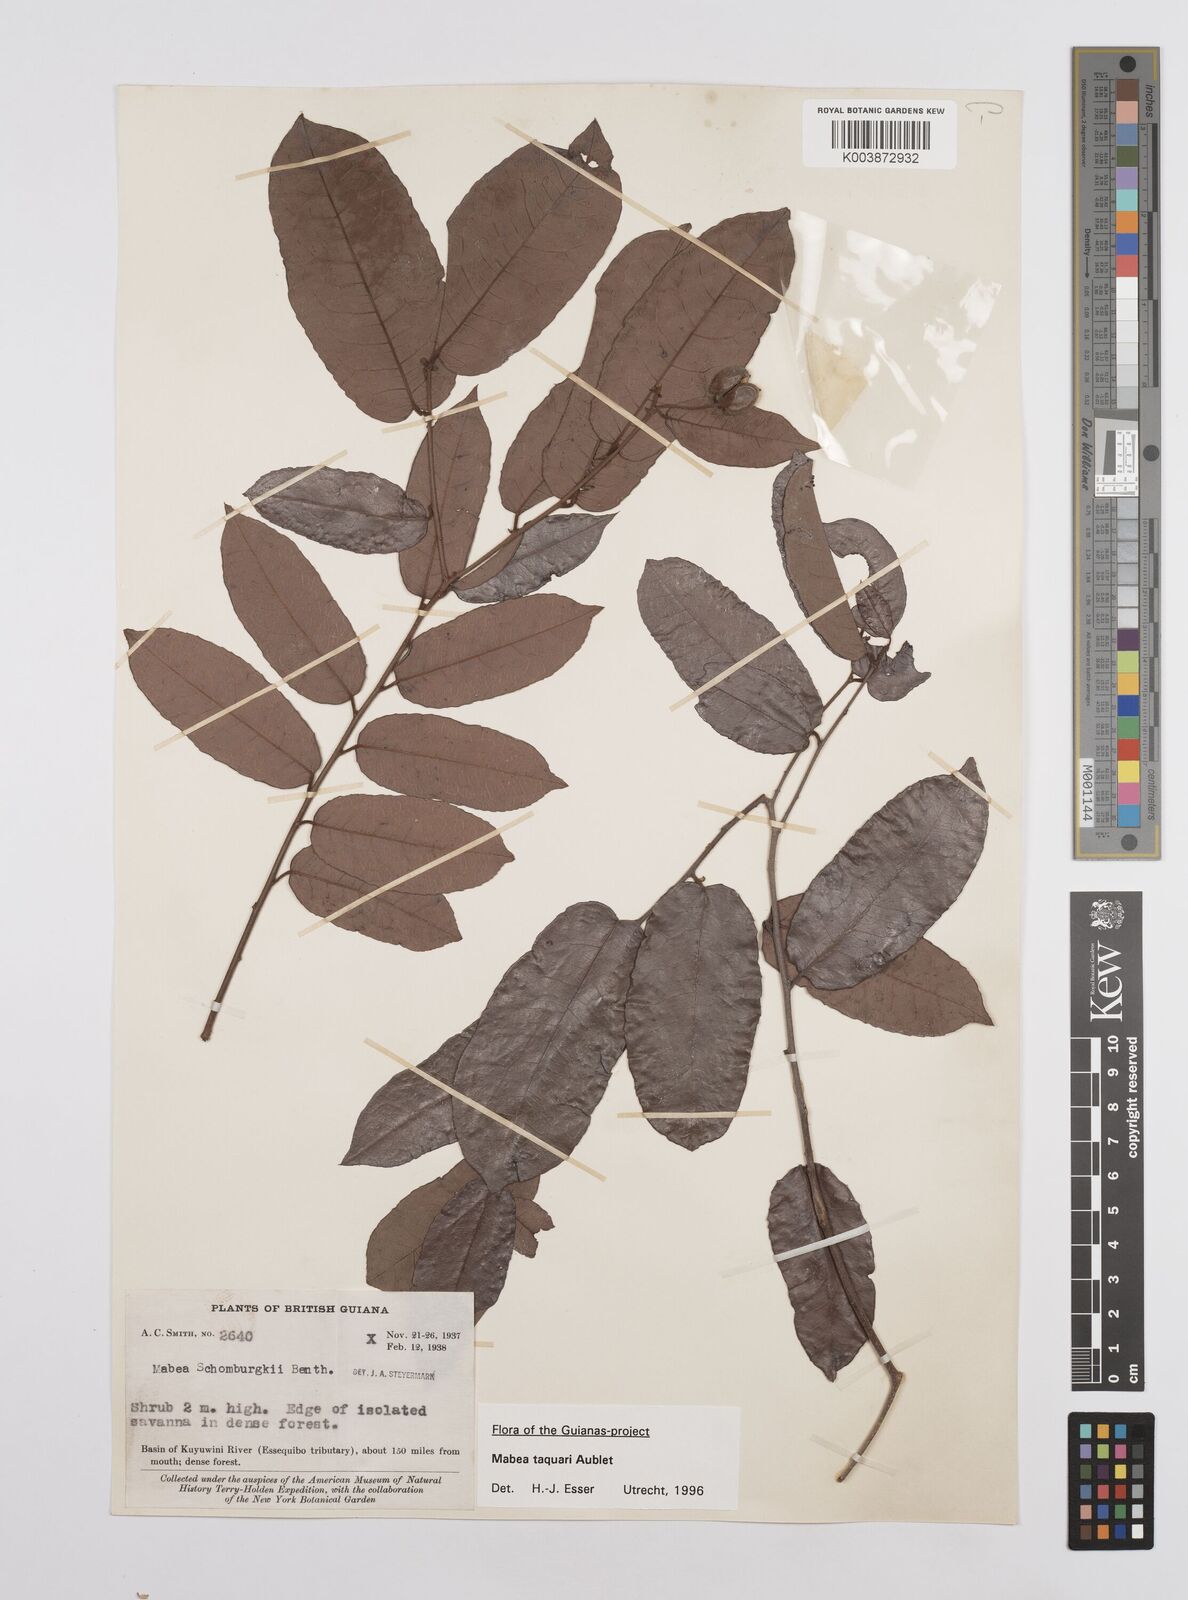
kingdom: Plantae
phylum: Tracheophyta
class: Magnoliopsida
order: Malpighiales
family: Euphorbiaceae
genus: Mabea
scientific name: Mabea taquari
